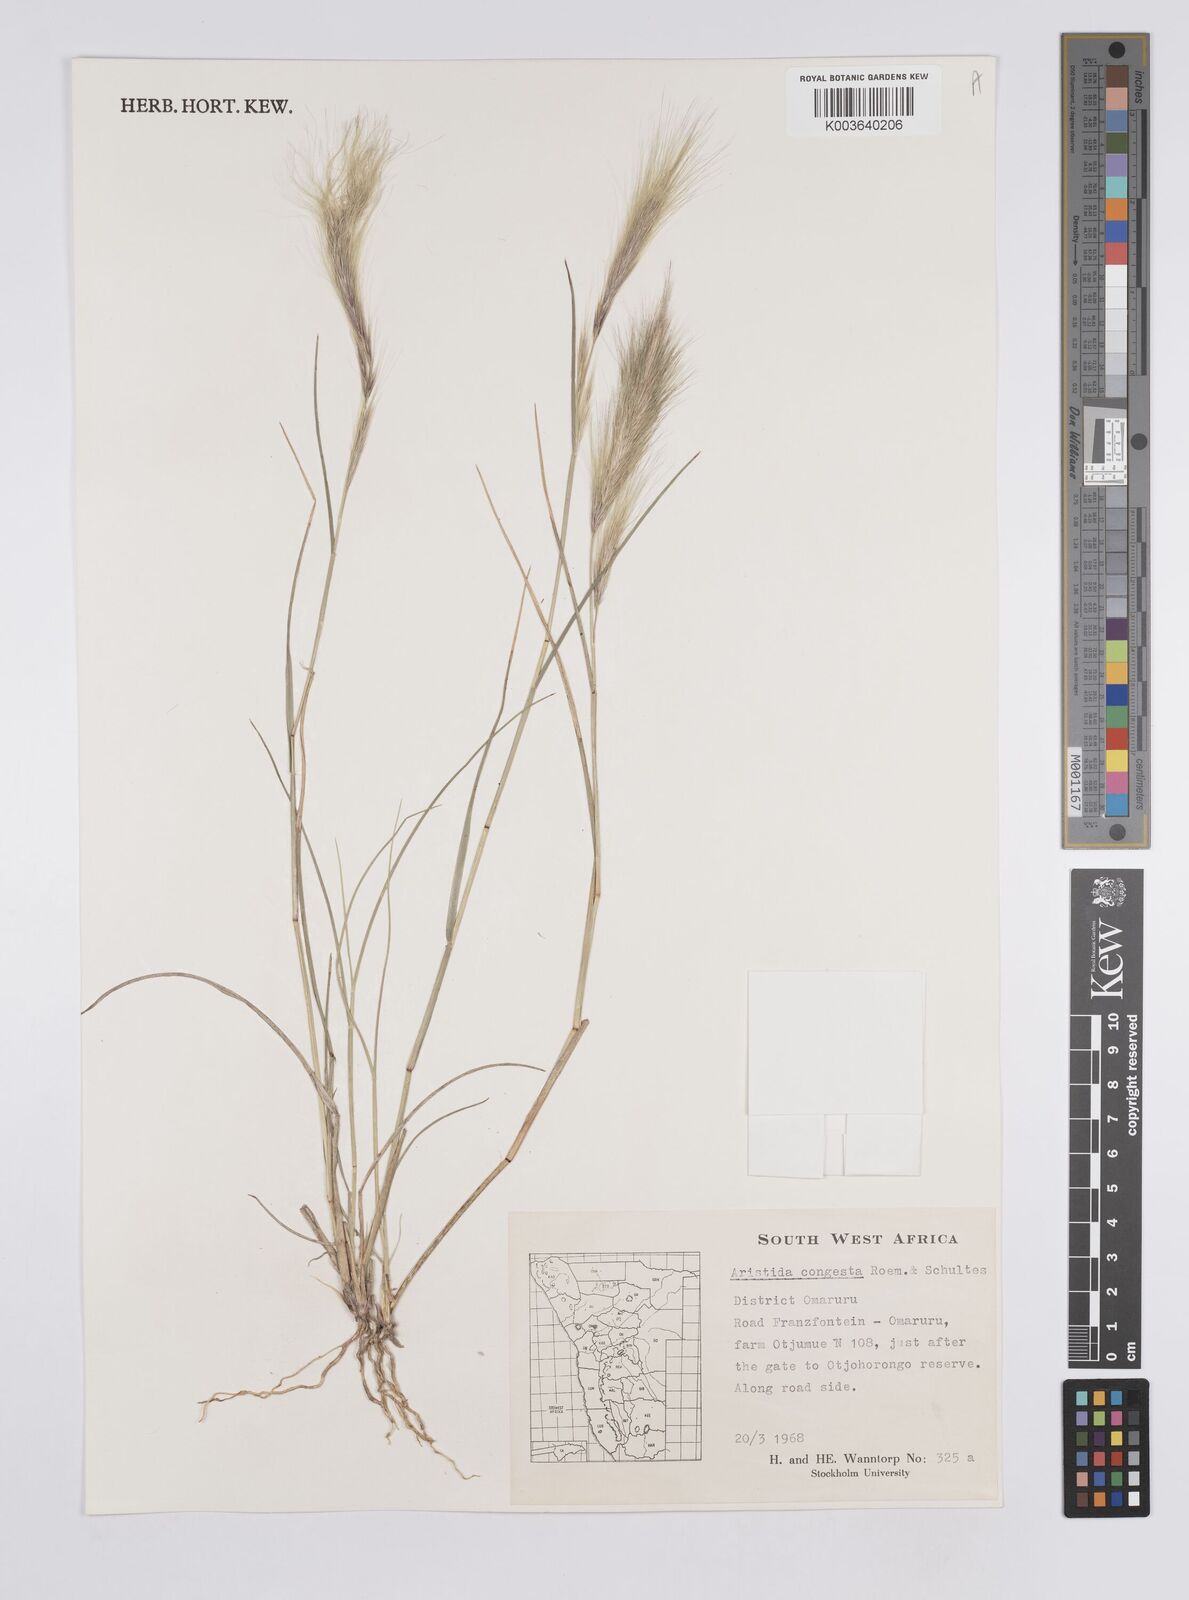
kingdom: Plantae
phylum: Tracheophyta
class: Liliopsida
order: Poales
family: Poaceae
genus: Aristida
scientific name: Aristida congesta
